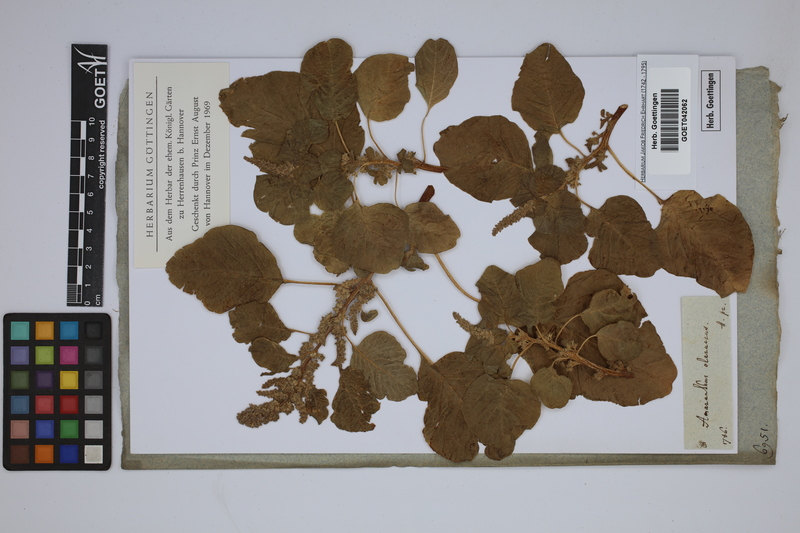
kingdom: Plantae
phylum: Tracheophyta
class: Magnoliopsida
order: Caryophyllales
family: Amaranthaceae
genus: Amaranthus
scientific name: Amaranthus blitum
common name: Purple amaranth
